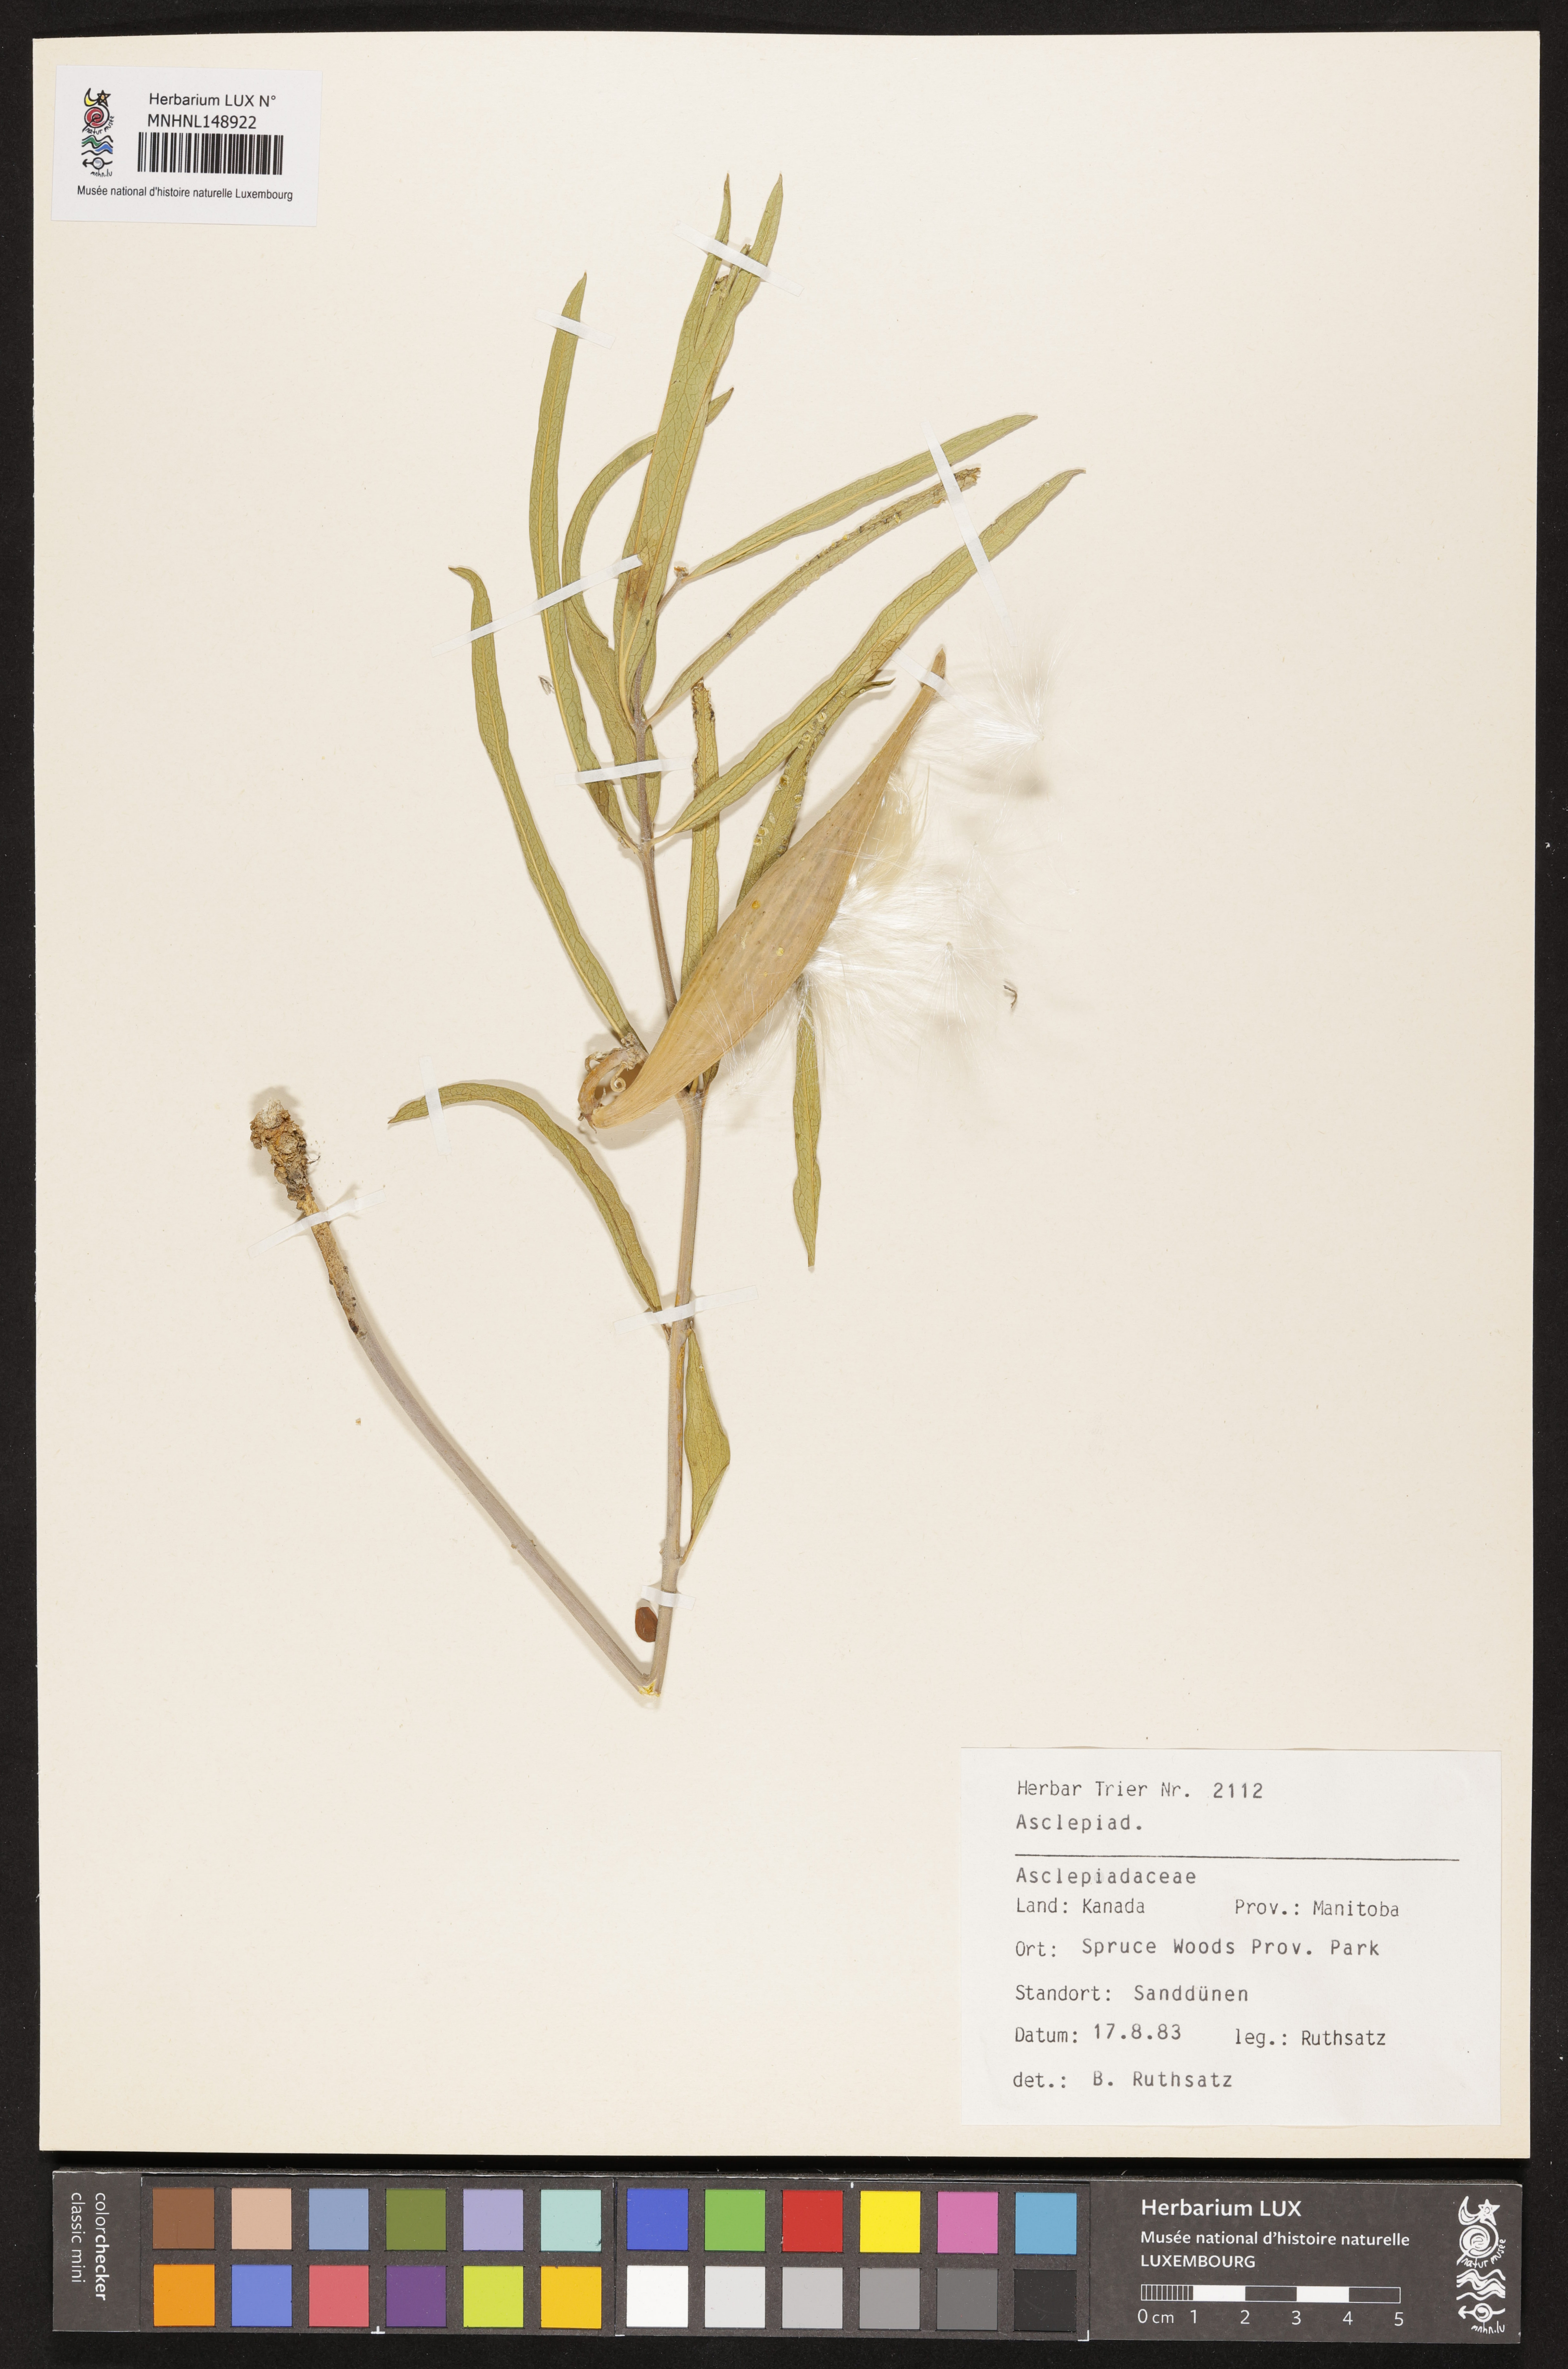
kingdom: Plantae
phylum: Tracheophyta
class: Magnoliopsida
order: Gentianales
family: Asclepiadaceae
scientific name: Asclepiadaceae
